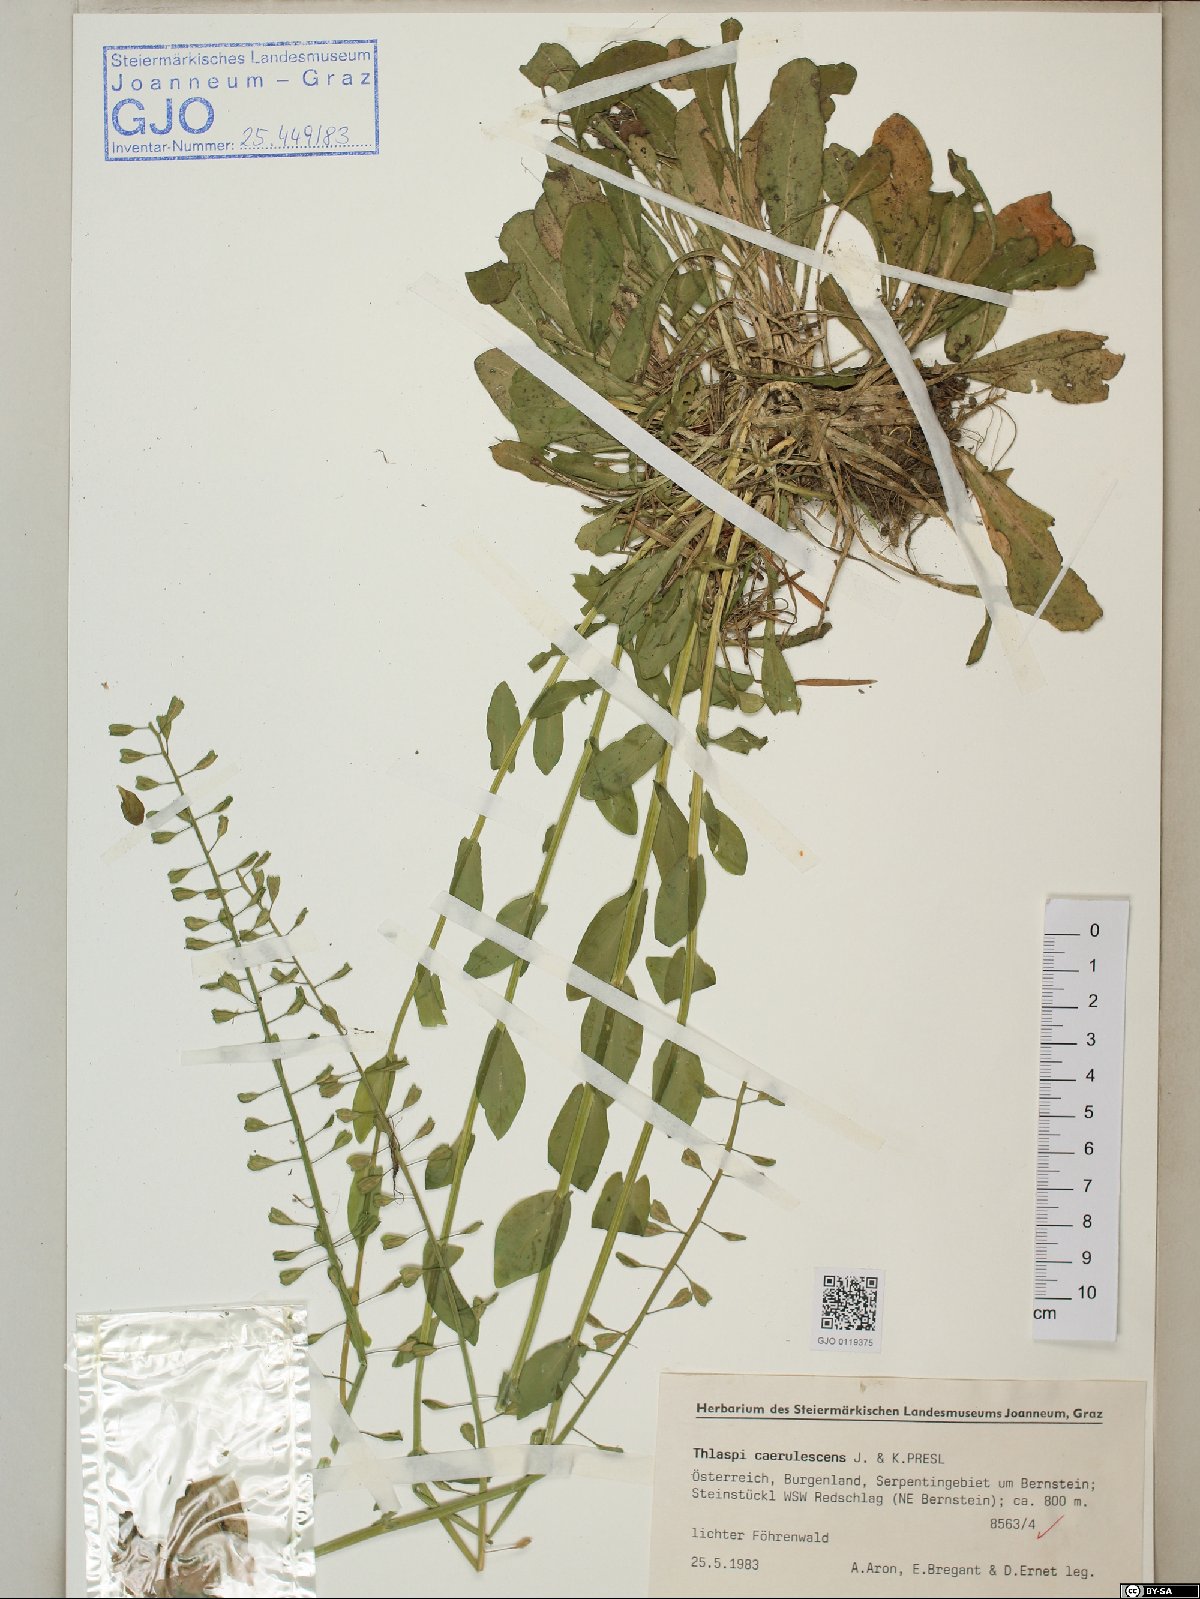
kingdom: Plantae
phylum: Tracheophyta
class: Magnoliopsida
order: Brassicales
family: Brassicaceae
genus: Noccaea
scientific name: Noccaea caerulescens
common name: Alpine pennycress
